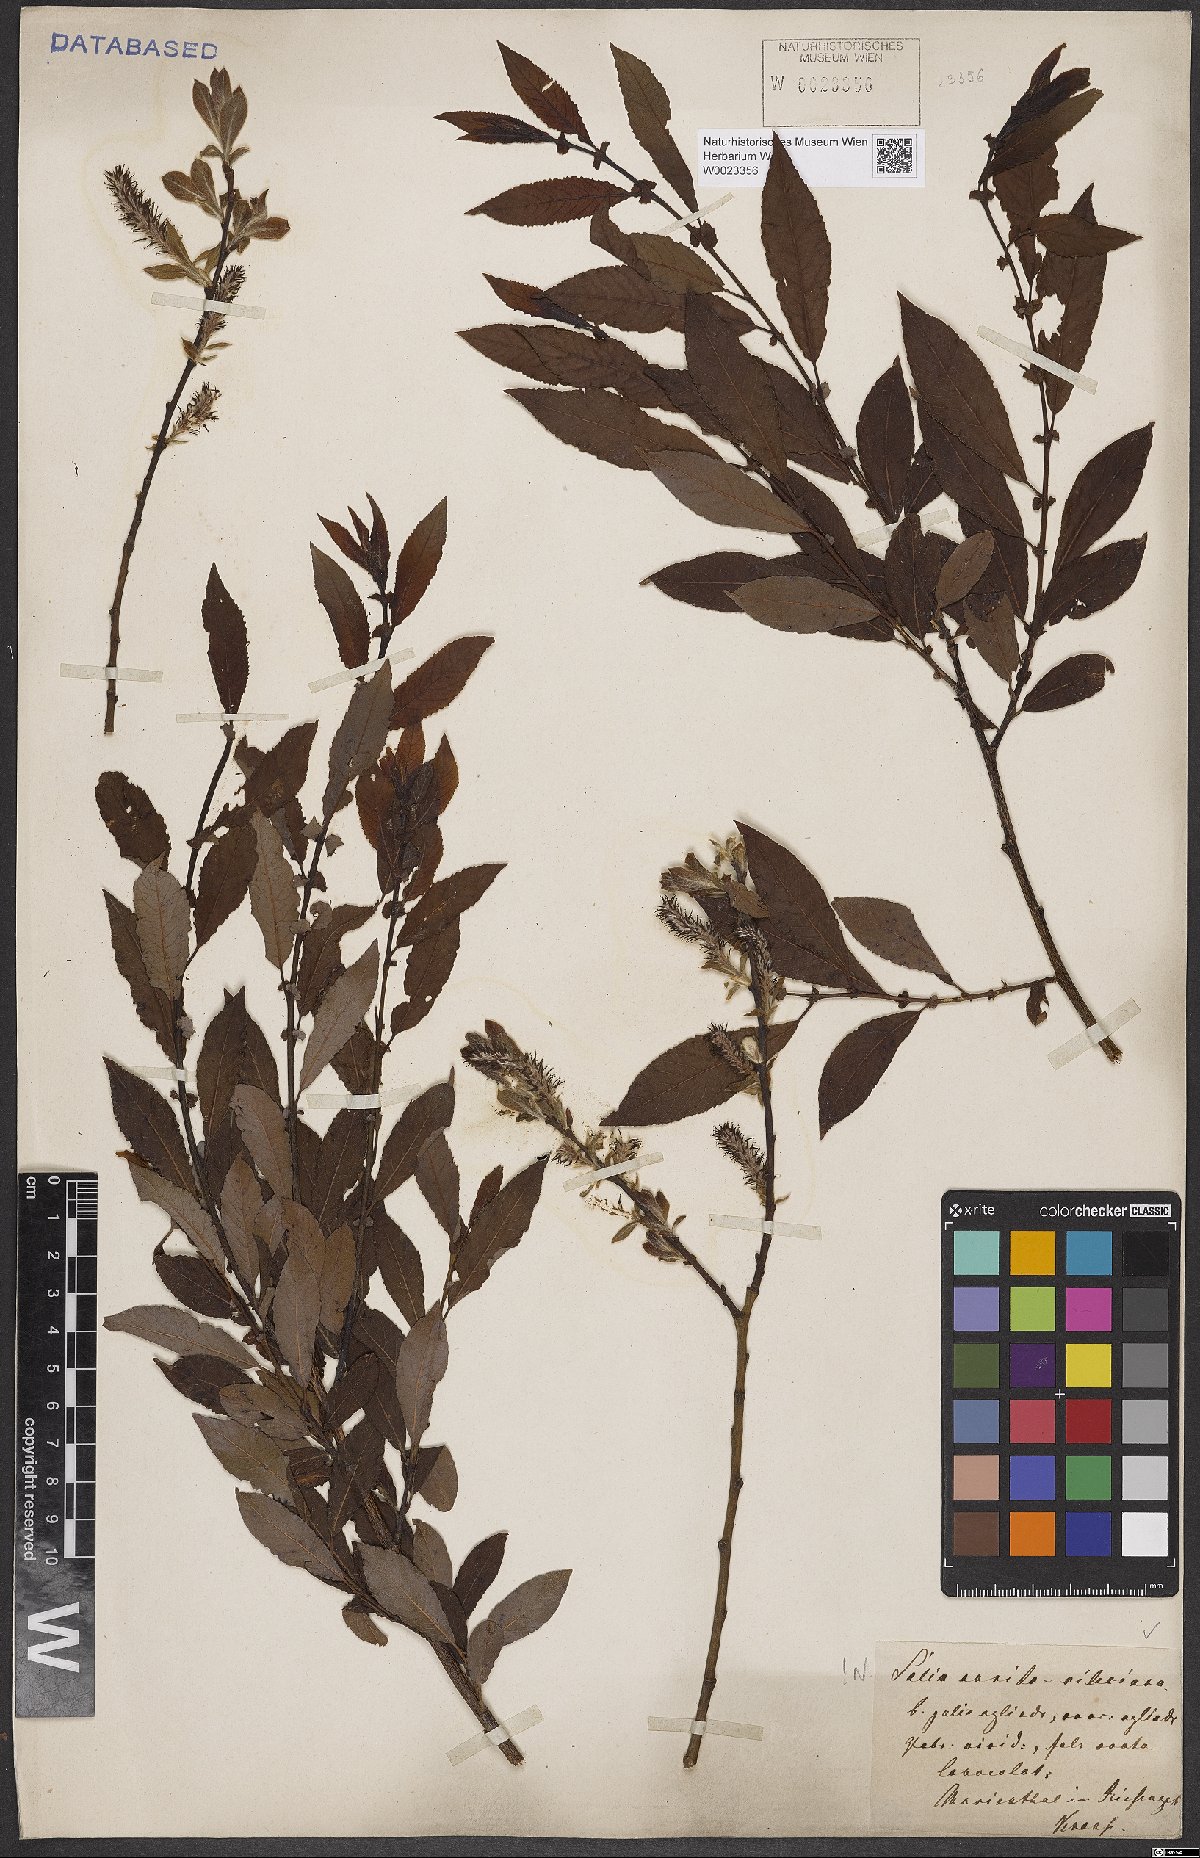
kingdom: Plantae
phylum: Tracheophyta
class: Magnoliopsida
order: Malpighiales
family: Salicaceae
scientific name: Salicaceae
